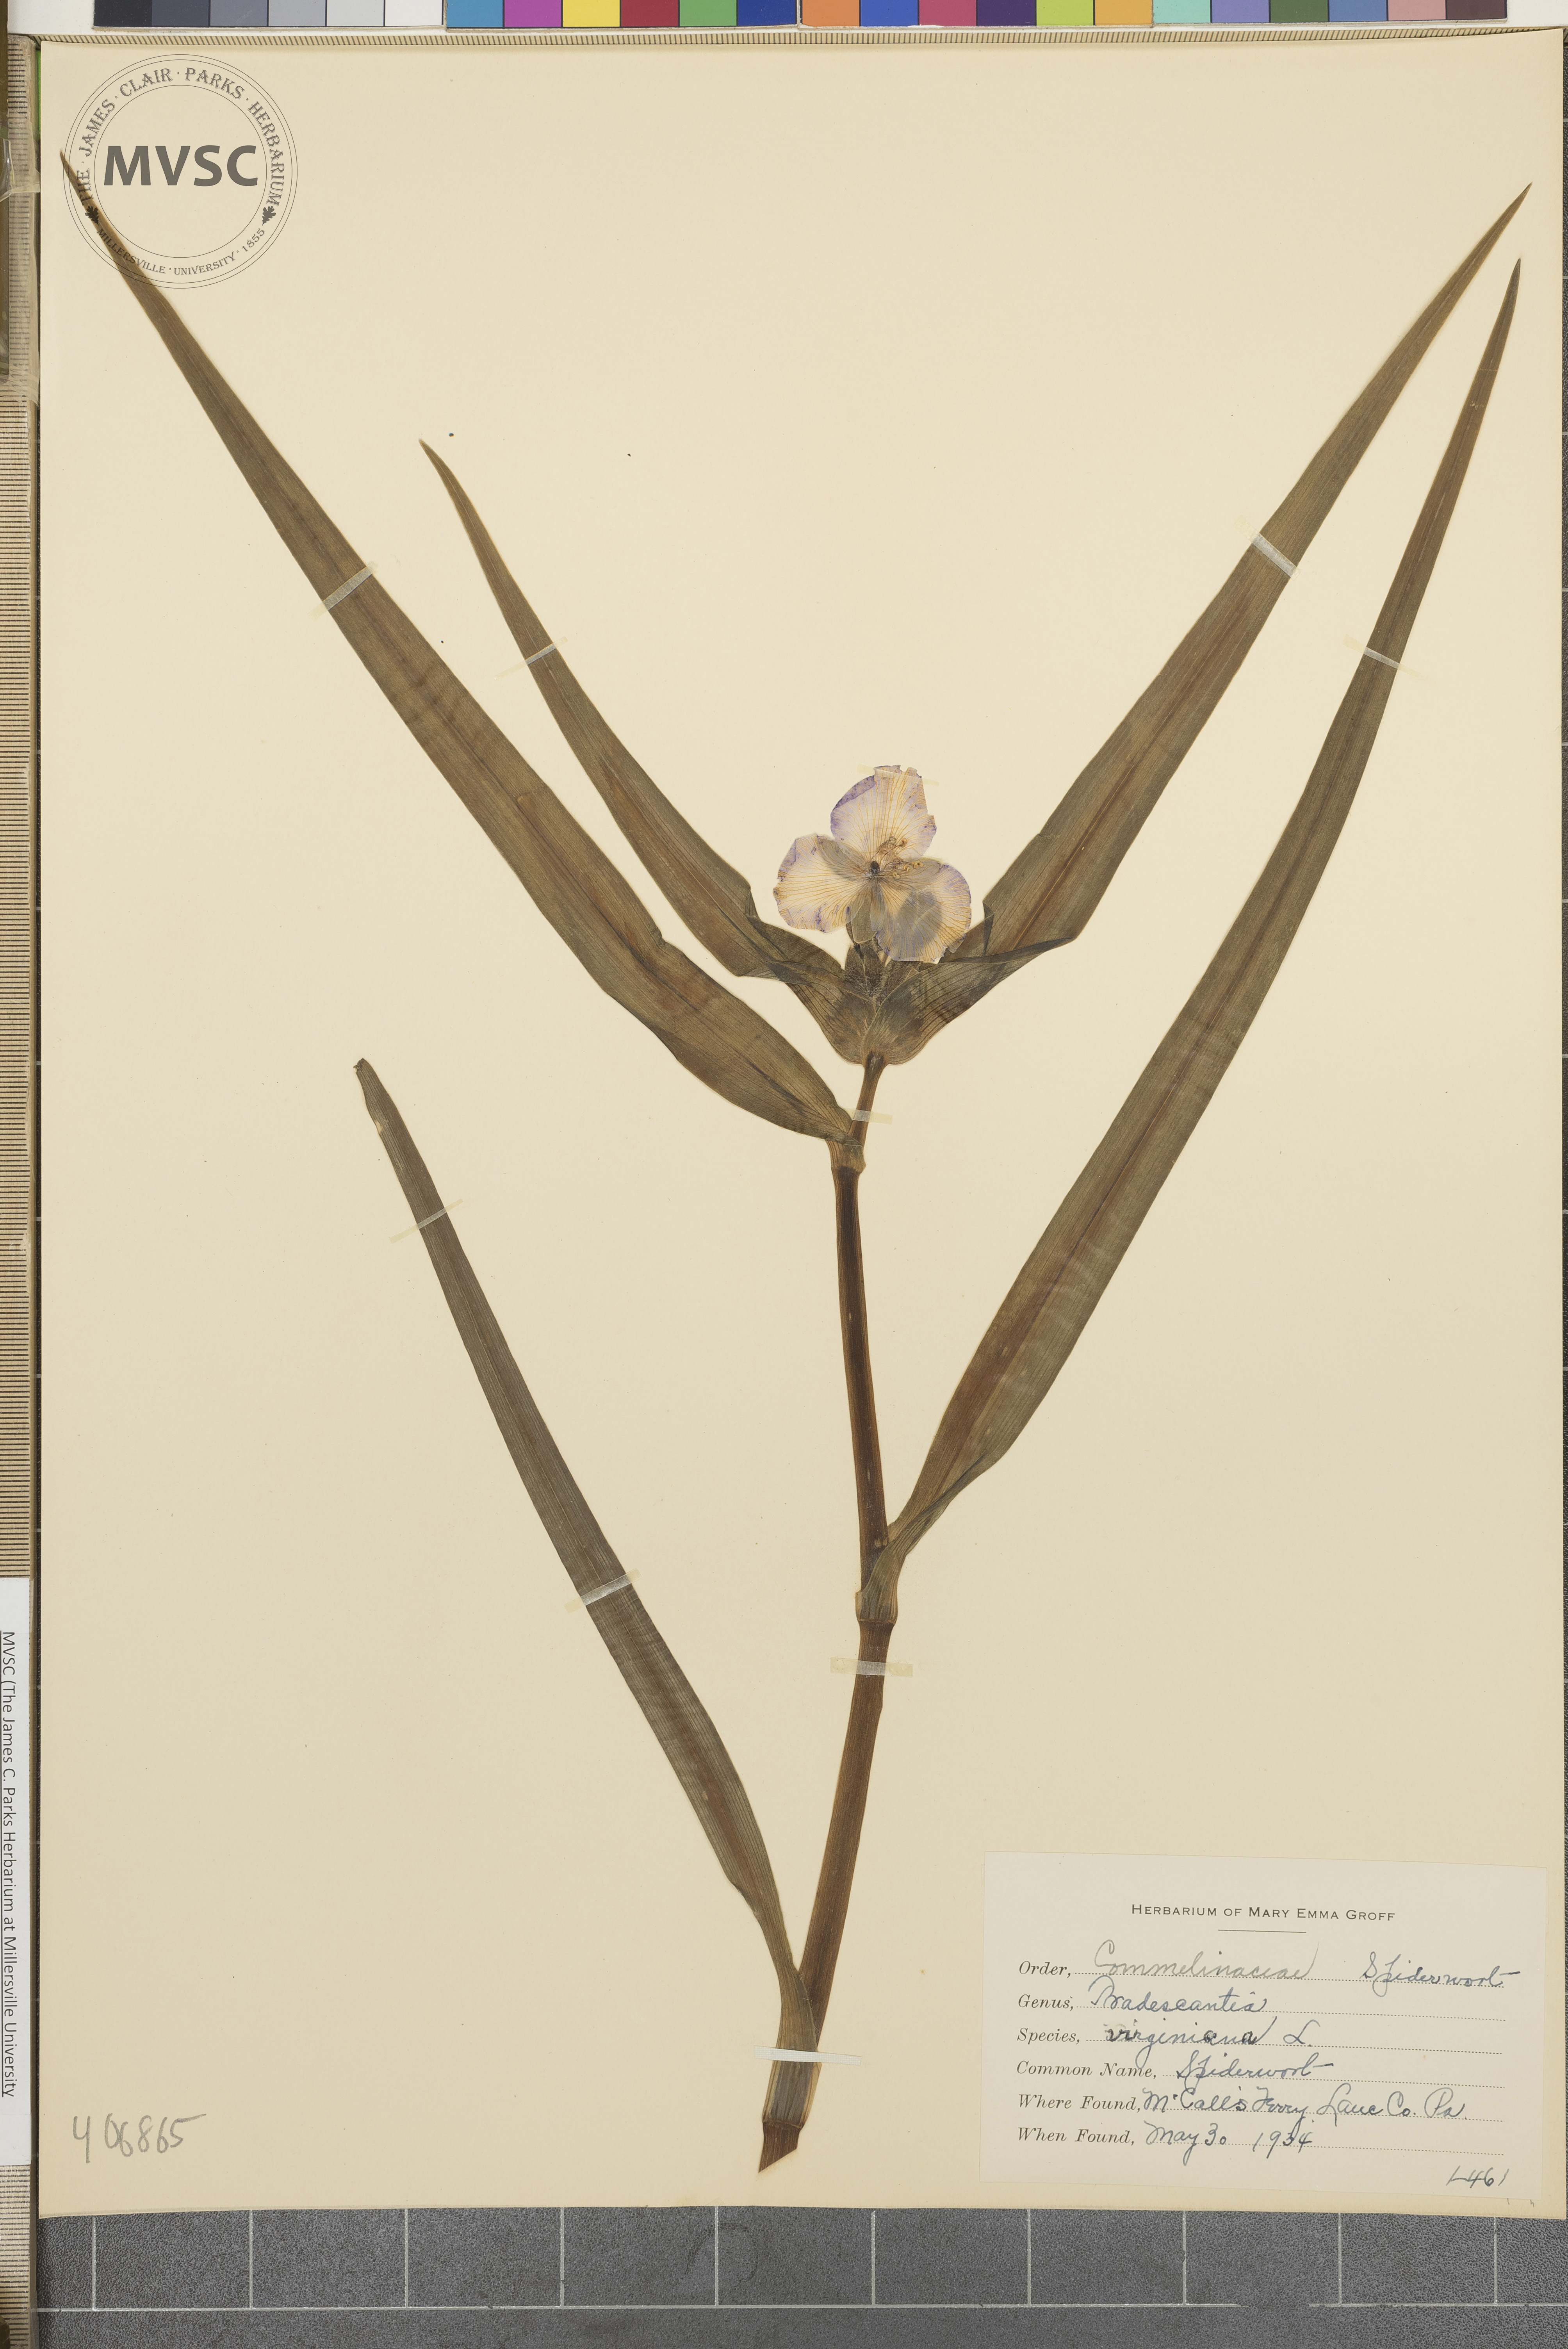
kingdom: Plantae
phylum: Tracheophyta
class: Liliopsida
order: Commelinales
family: Commelinaceae
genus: Tradescantia
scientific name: Tradescantia virginiana
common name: Spiderwort
